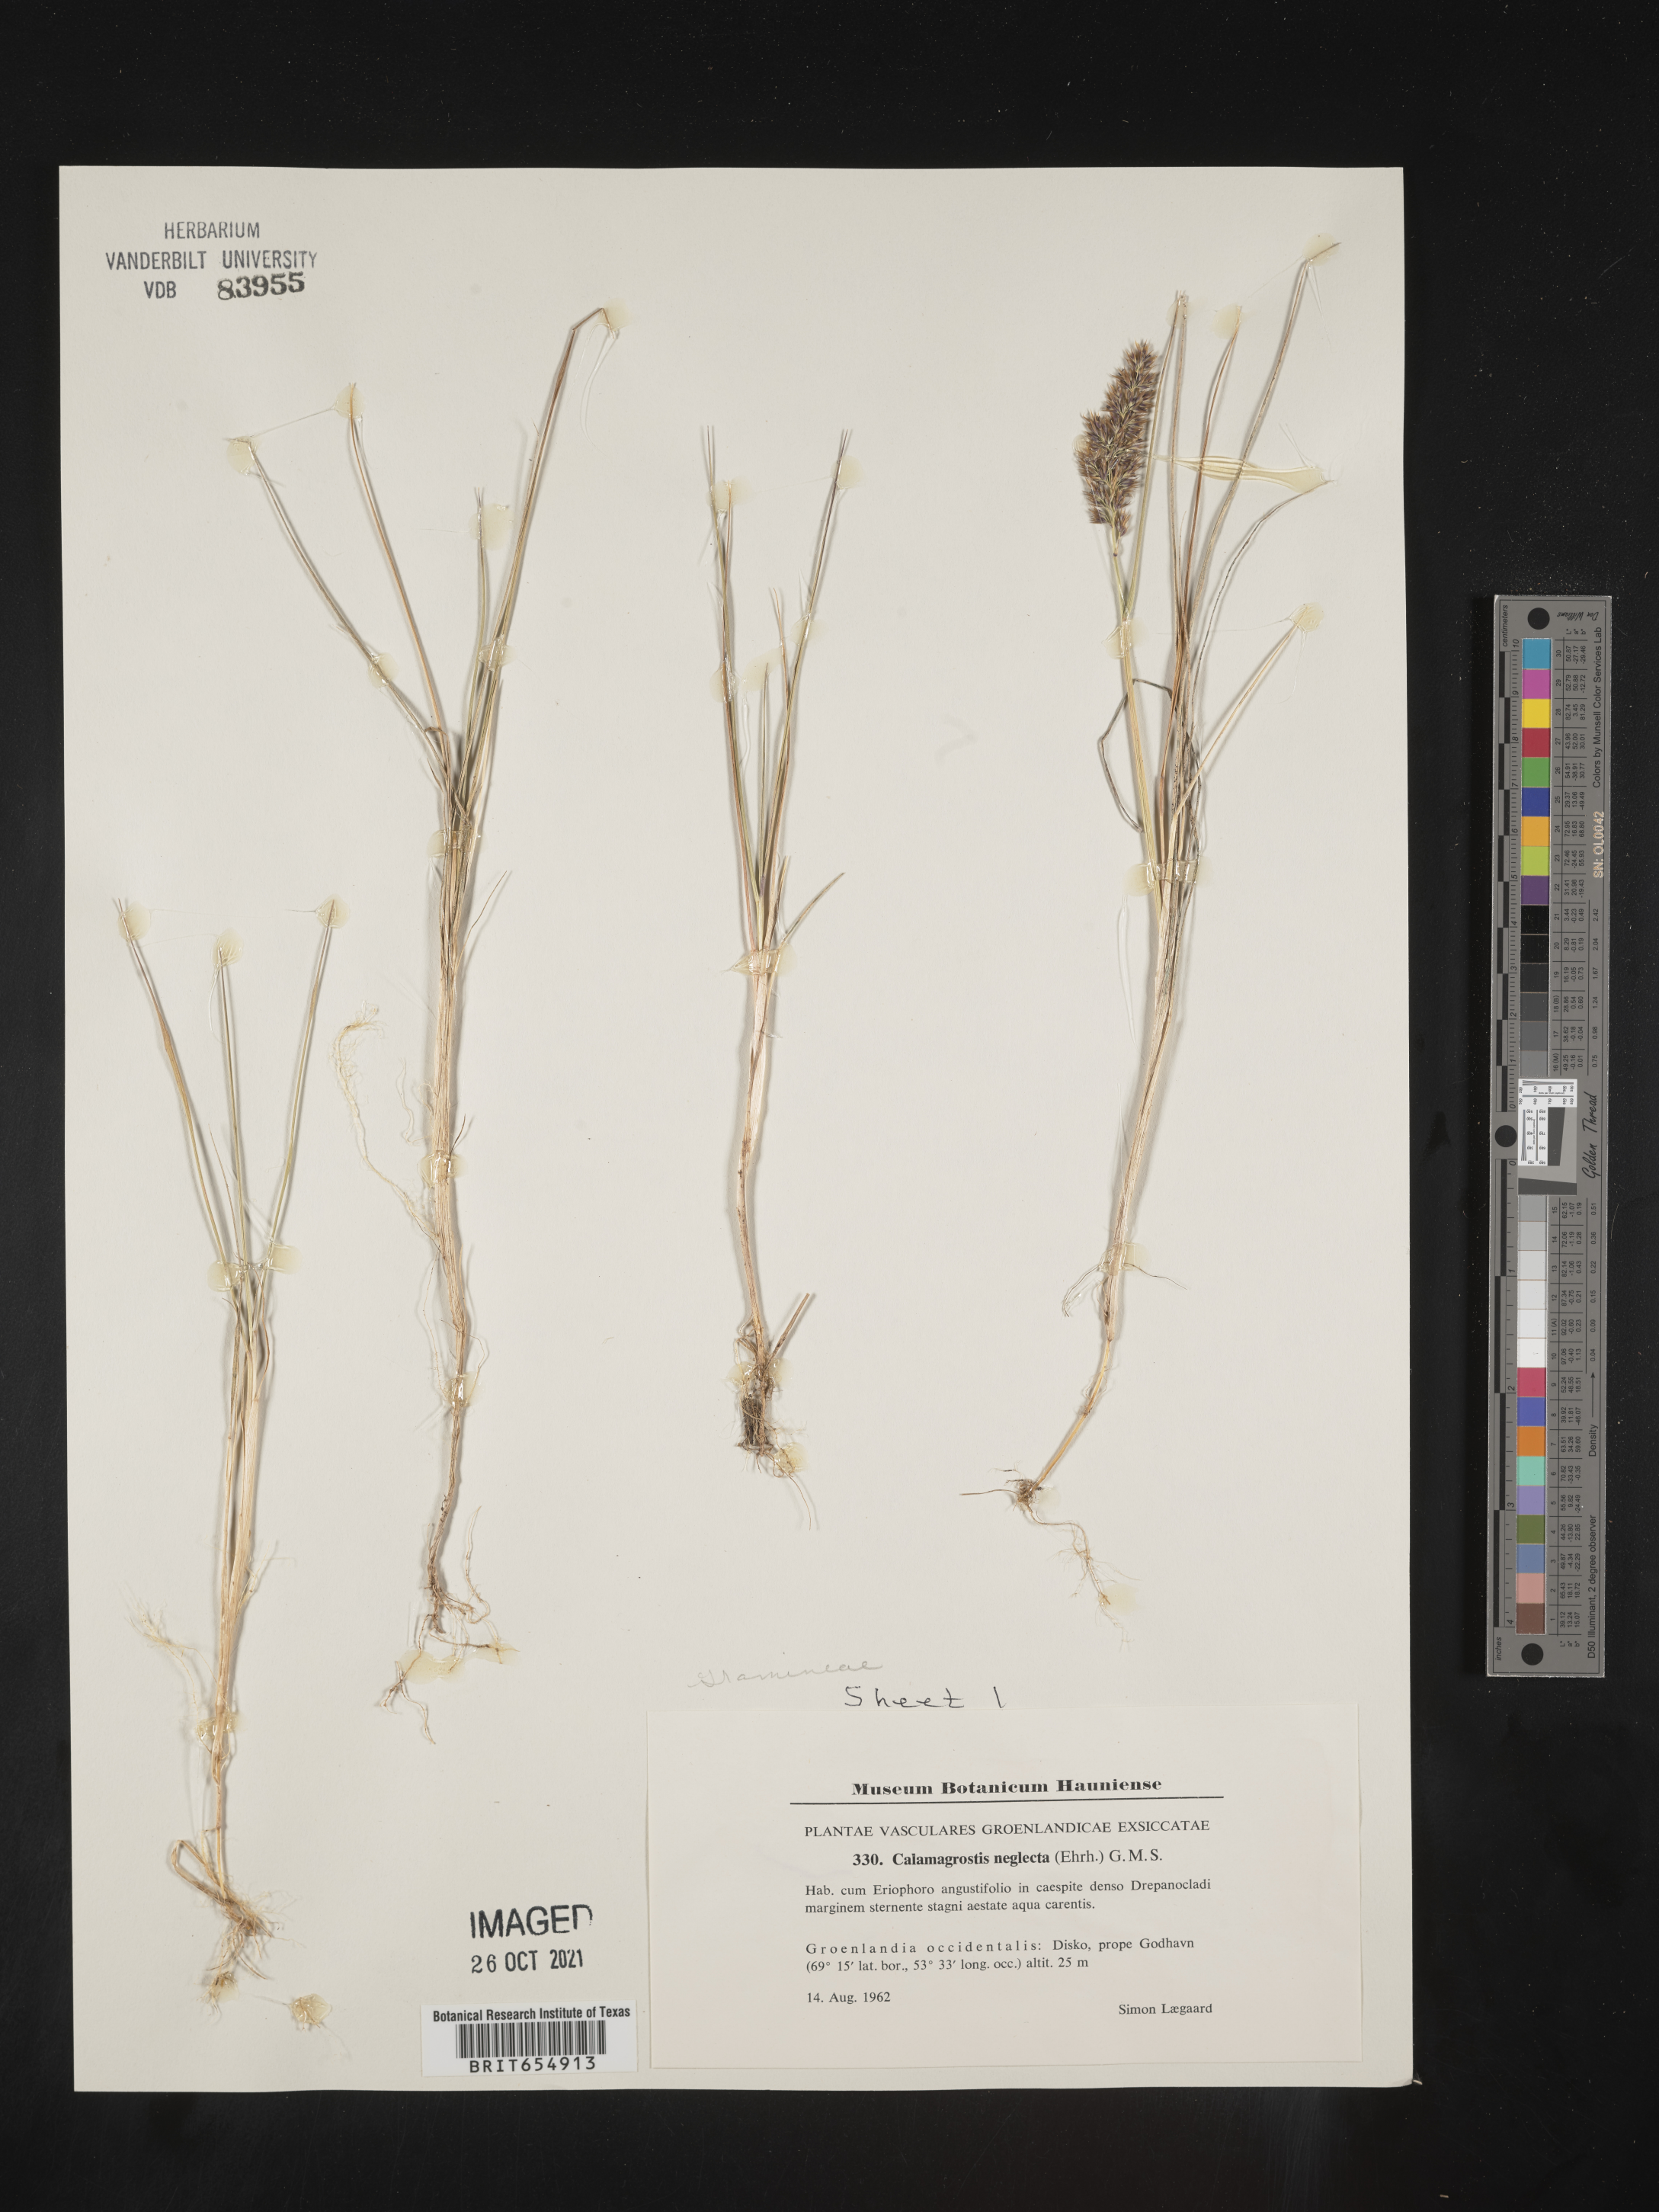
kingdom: Plantae
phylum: Tracheophyta
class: Liliopsida
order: Poales
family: Poaceae
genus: Calamagrostis
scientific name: Calamagrostis
